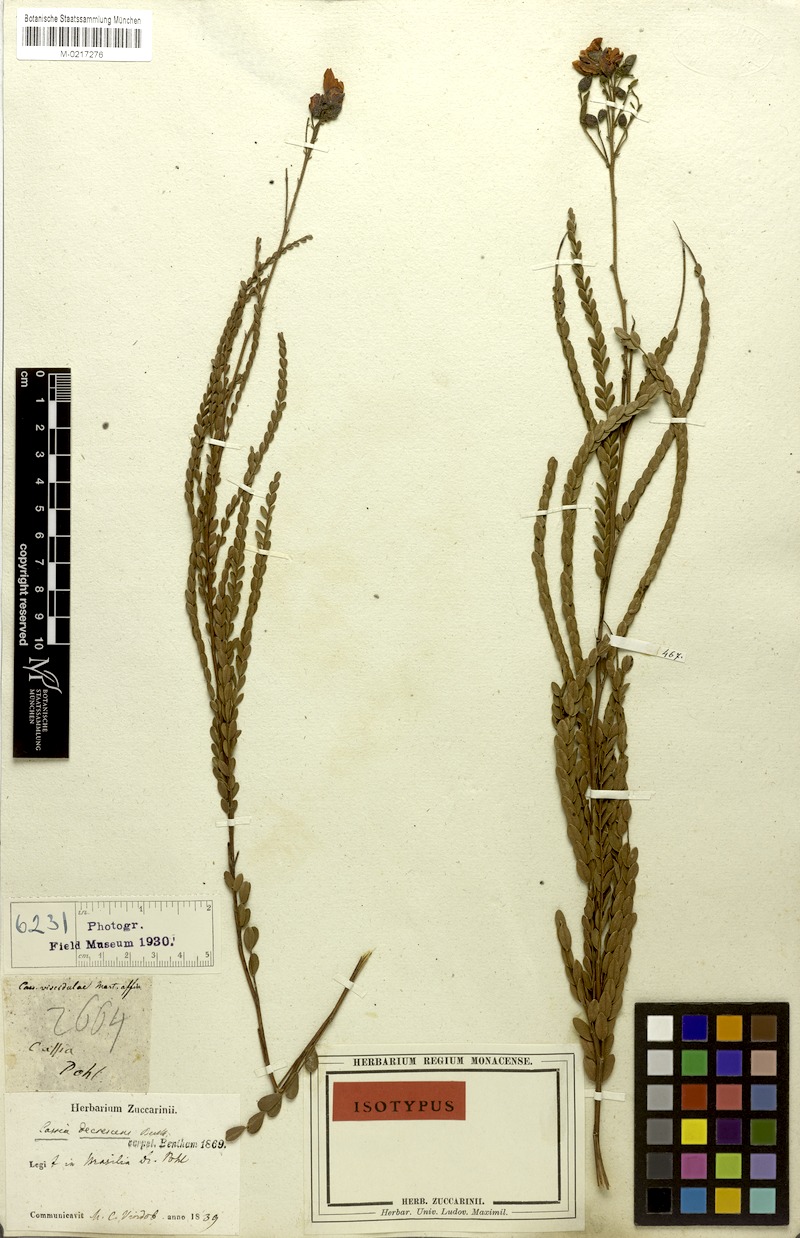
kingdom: Plantae
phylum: Tracheophyta
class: Magnoliopsida
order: Fabales
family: Fabaceae
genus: Chamaecrista
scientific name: Chamaecrista decrescens
